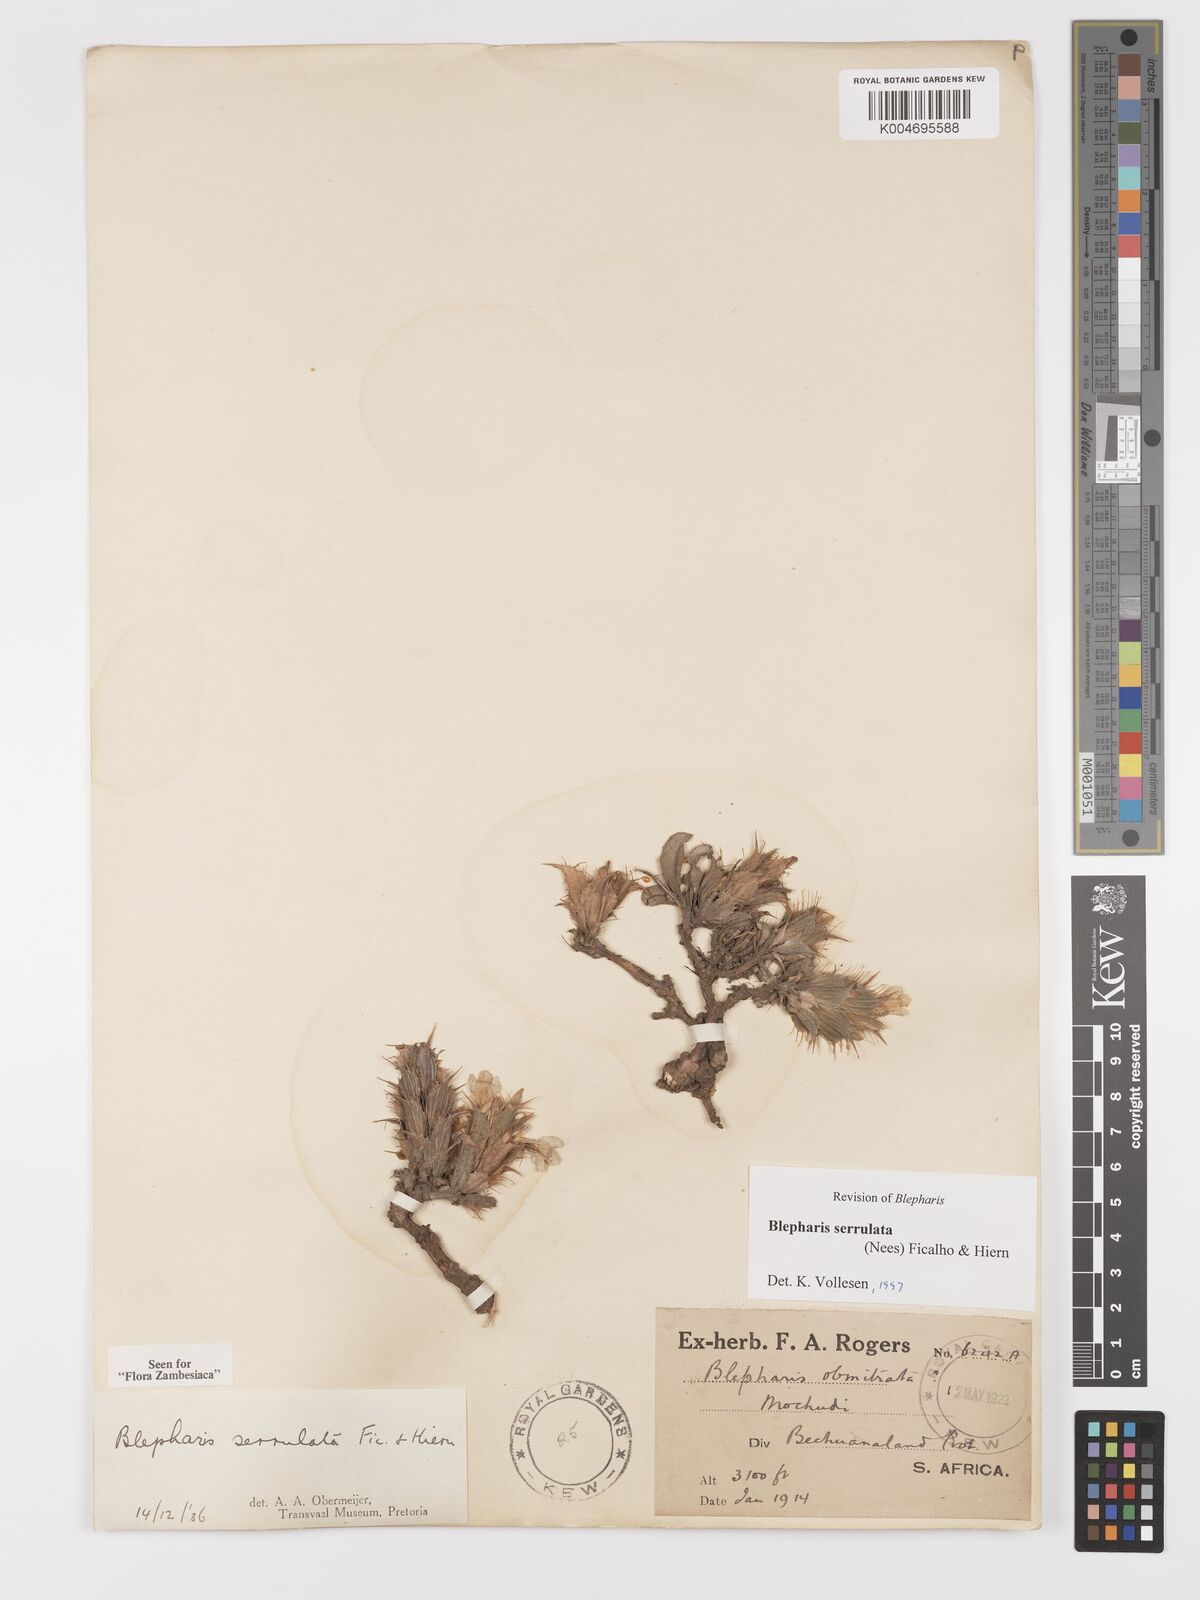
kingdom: Plantae
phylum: Tracheophyta
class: Magnoliopsida
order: Lamiales
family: Acanthaceae
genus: Blepharis
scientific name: Blepharis serrulata
